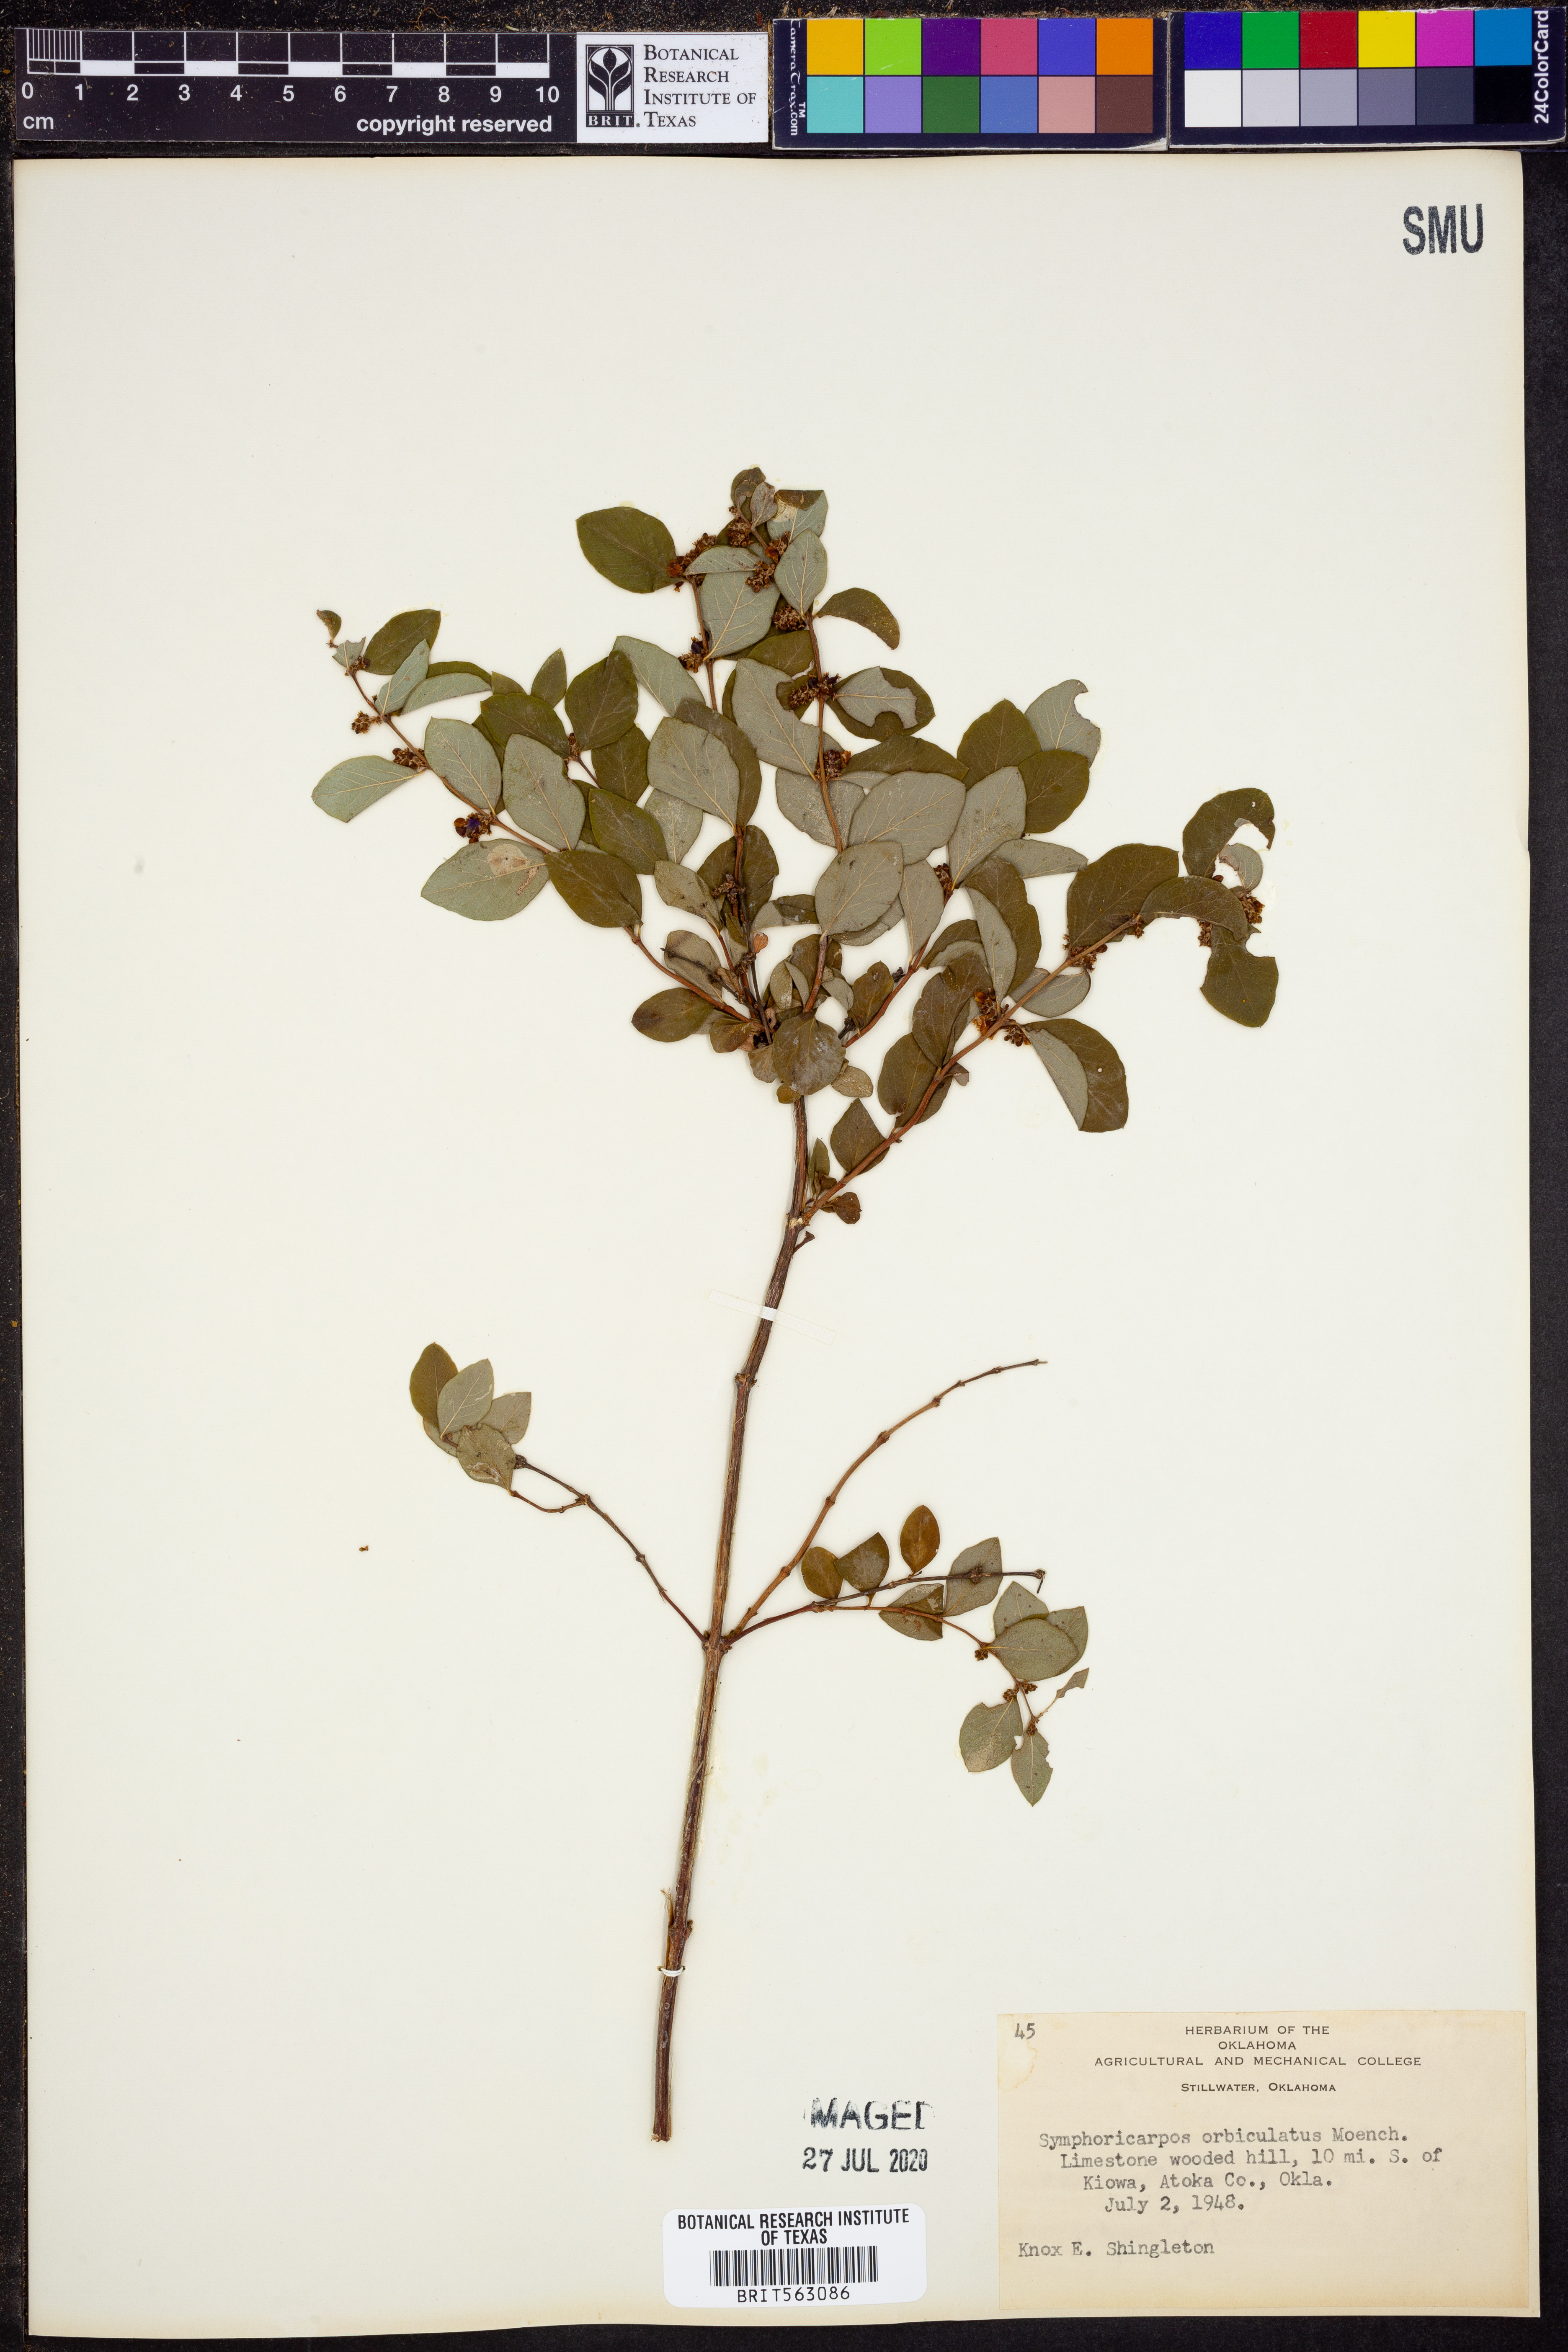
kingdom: Plantae
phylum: Tracheophyta
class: Magnoliopsida
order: Dipsacales
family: Caprifoliaceae
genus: Symphoricarpos
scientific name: Symphoricarpos orbiculatus
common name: Coralberry
